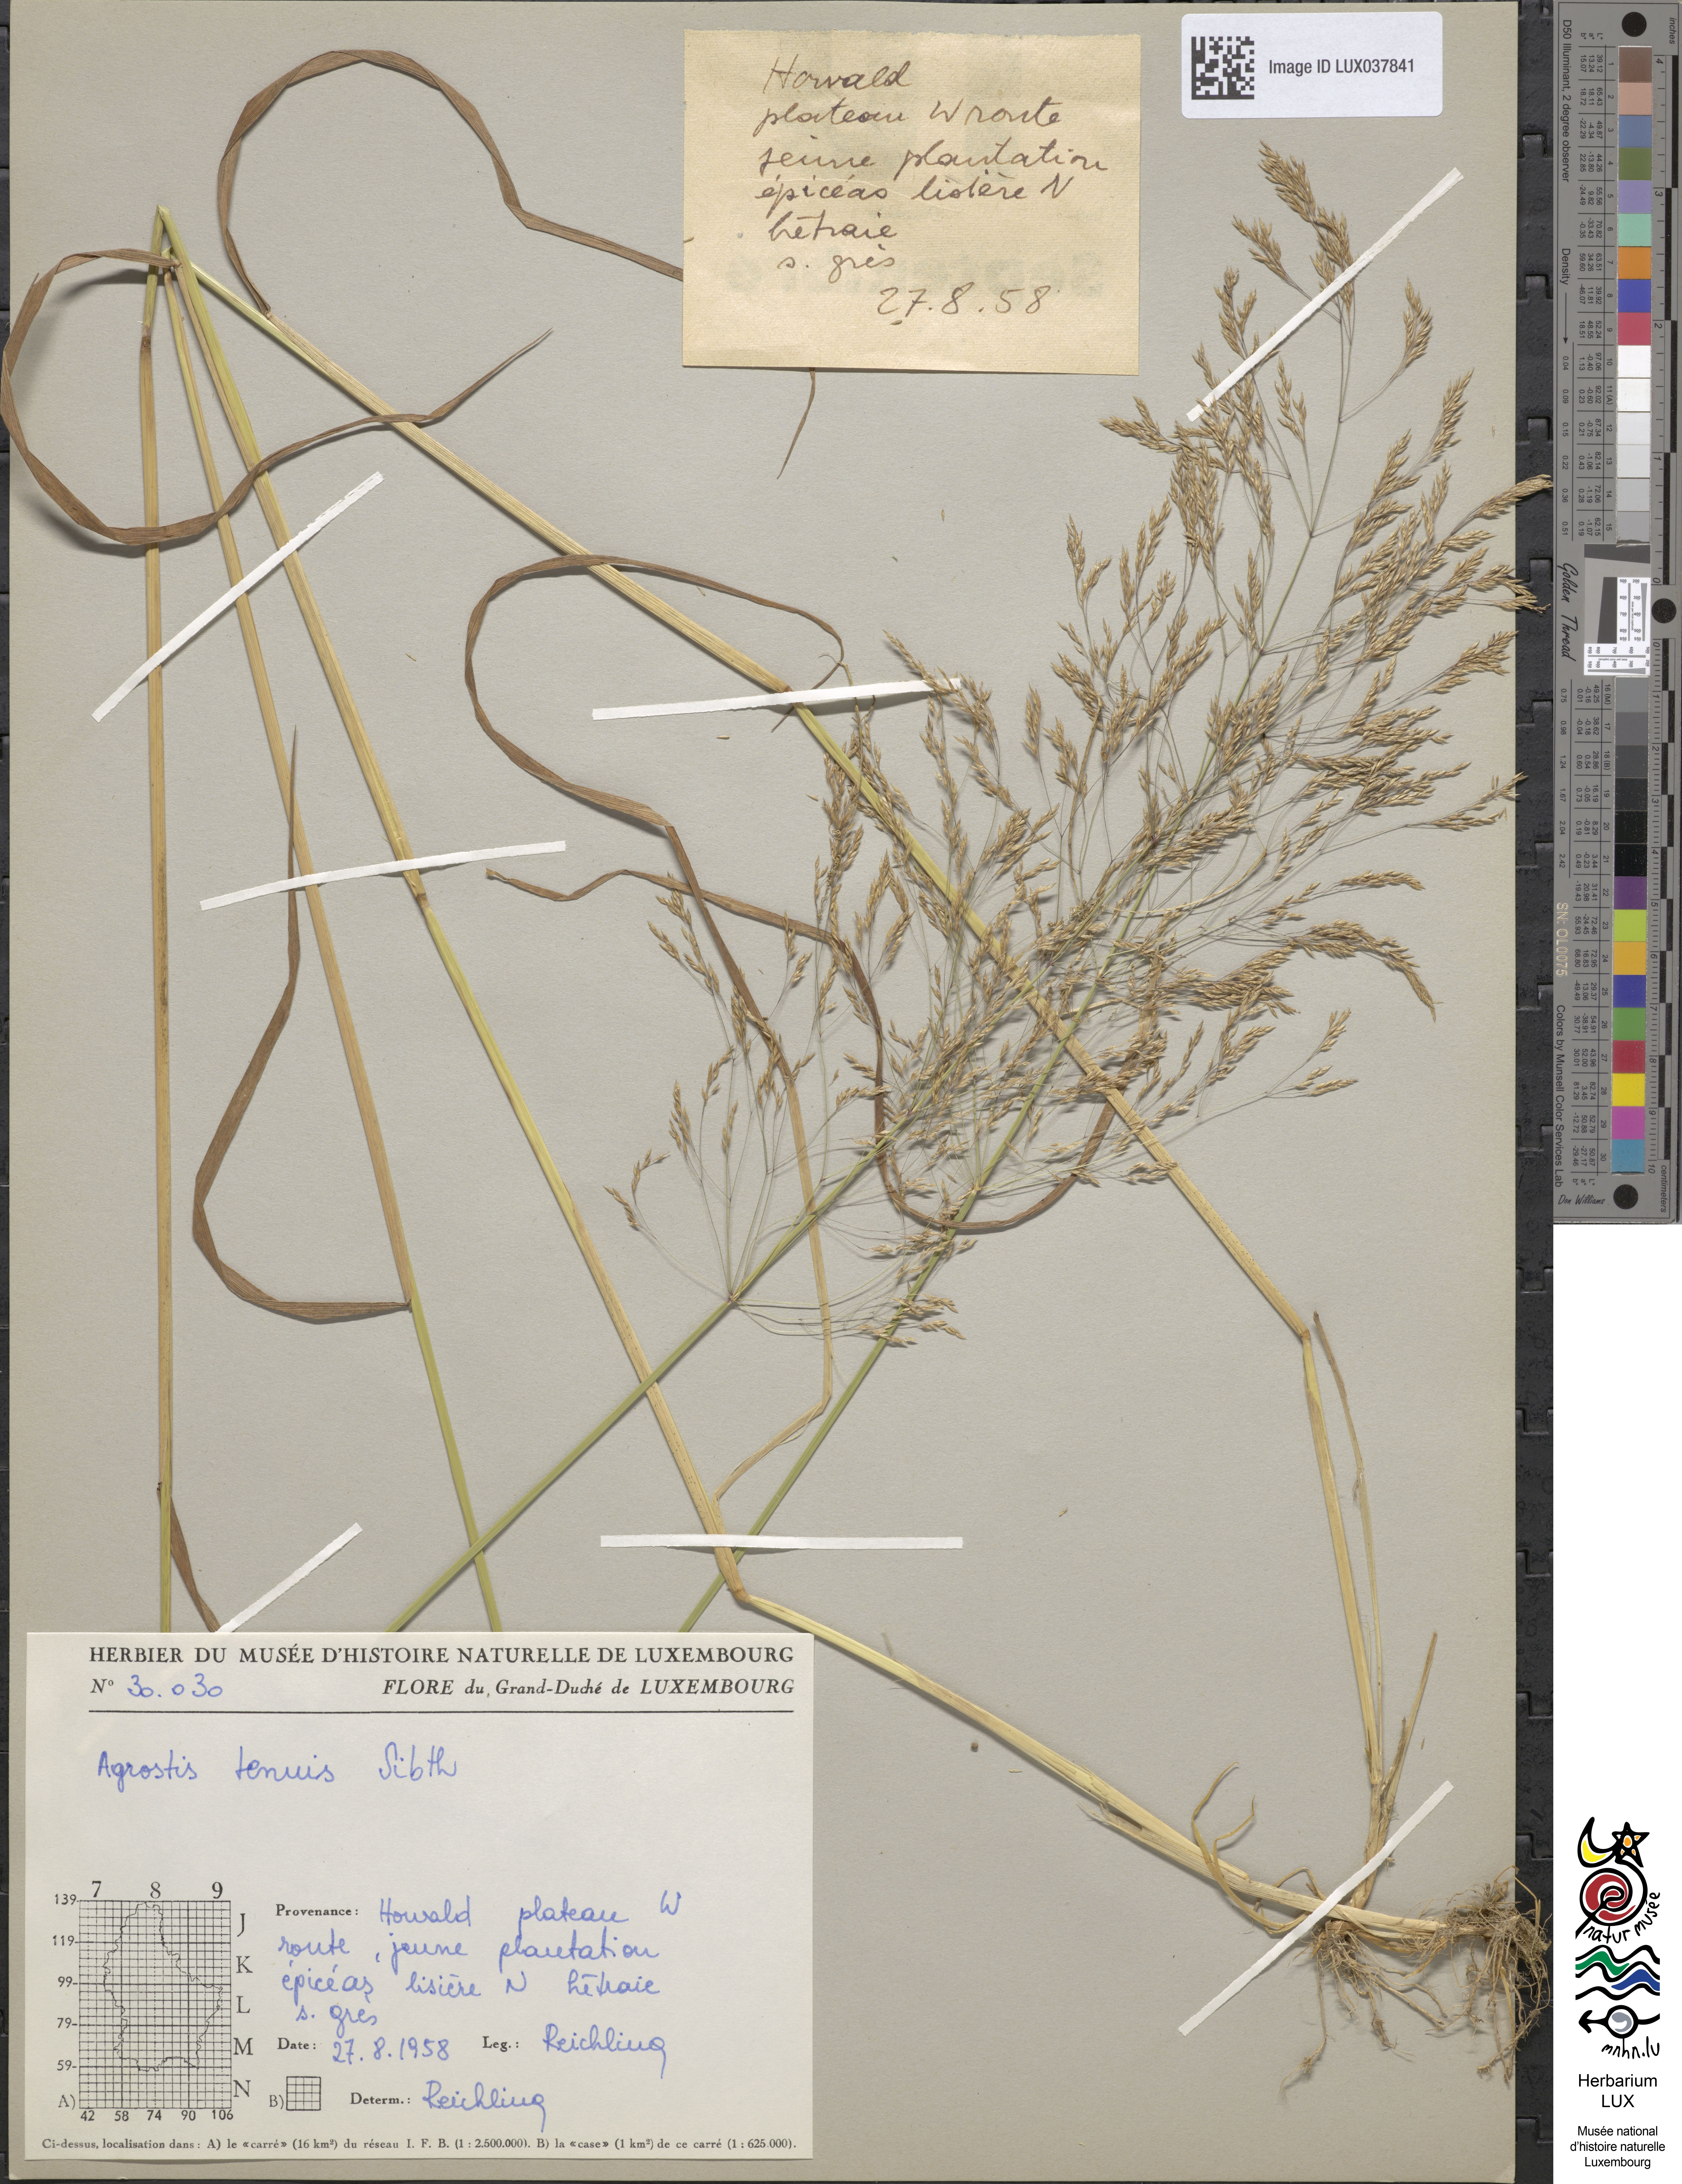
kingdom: Plantae
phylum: Tracheophyta
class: Liliopsida
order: Poales
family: Poaceae
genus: Agrostis
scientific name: Agrostis capillaris
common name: Colonial bentgrass
